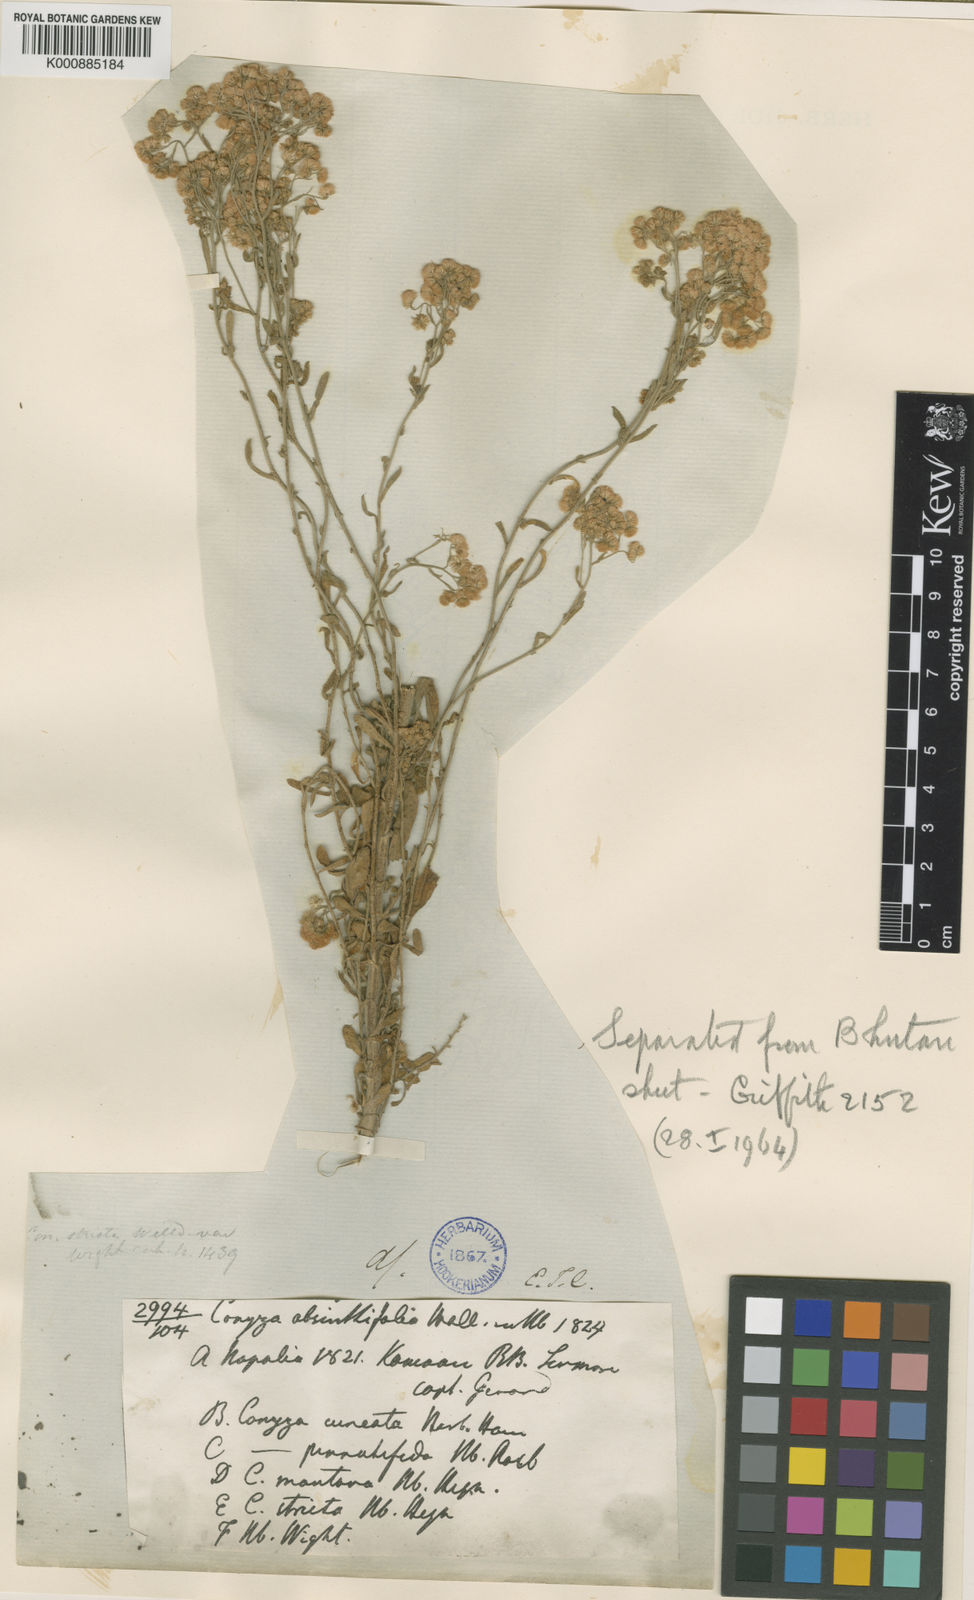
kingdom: Plantae
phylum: Tracheophyta
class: Magnoliopsida
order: Asterales
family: Asteraceae
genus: Nidorella
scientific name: Nidorella triloba
